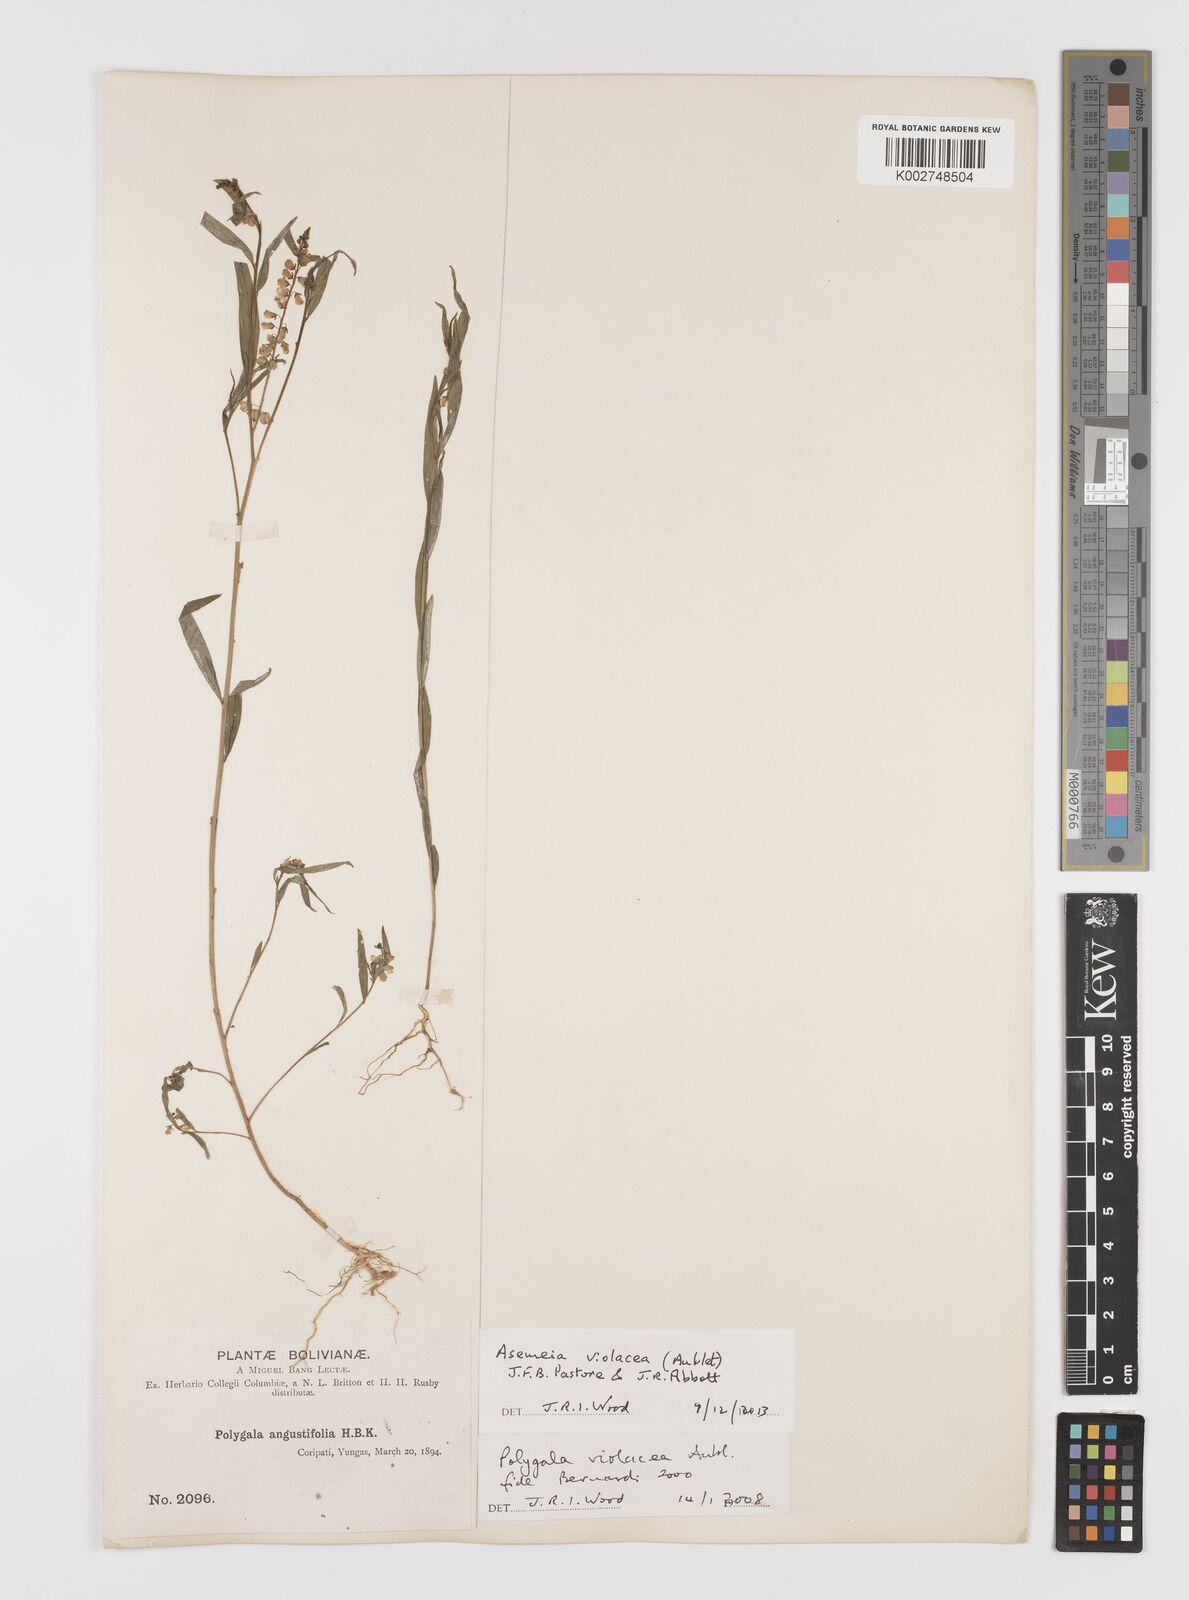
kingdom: Plantae
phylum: Tracheophyta
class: Magnoliopsida
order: Fabales
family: Polygalaceae
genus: Asemeia
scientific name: Asemeia violacea
